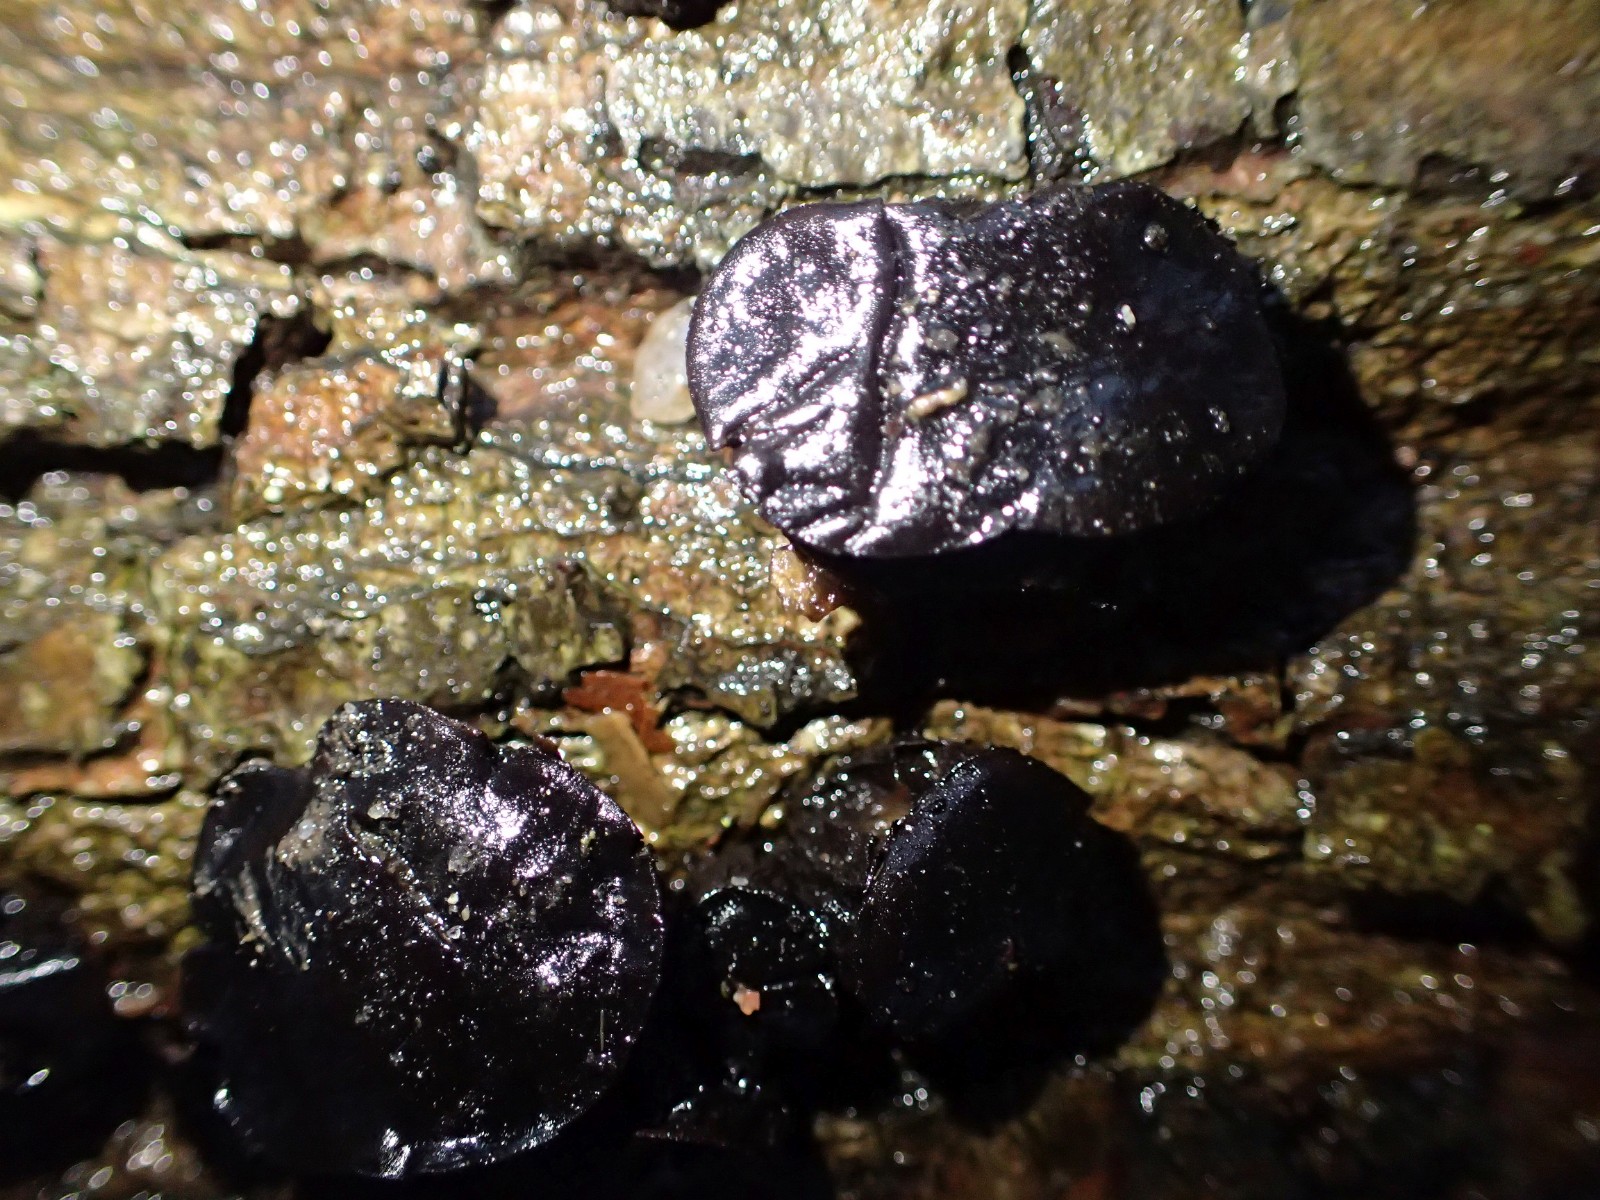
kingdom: Fungi
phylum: Basidiomycota
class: Agaricomycetes
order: Auriculariales
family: Auriculariaceae
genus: Exidia
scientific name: Exidia glandulosa
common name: ege-bævretop
